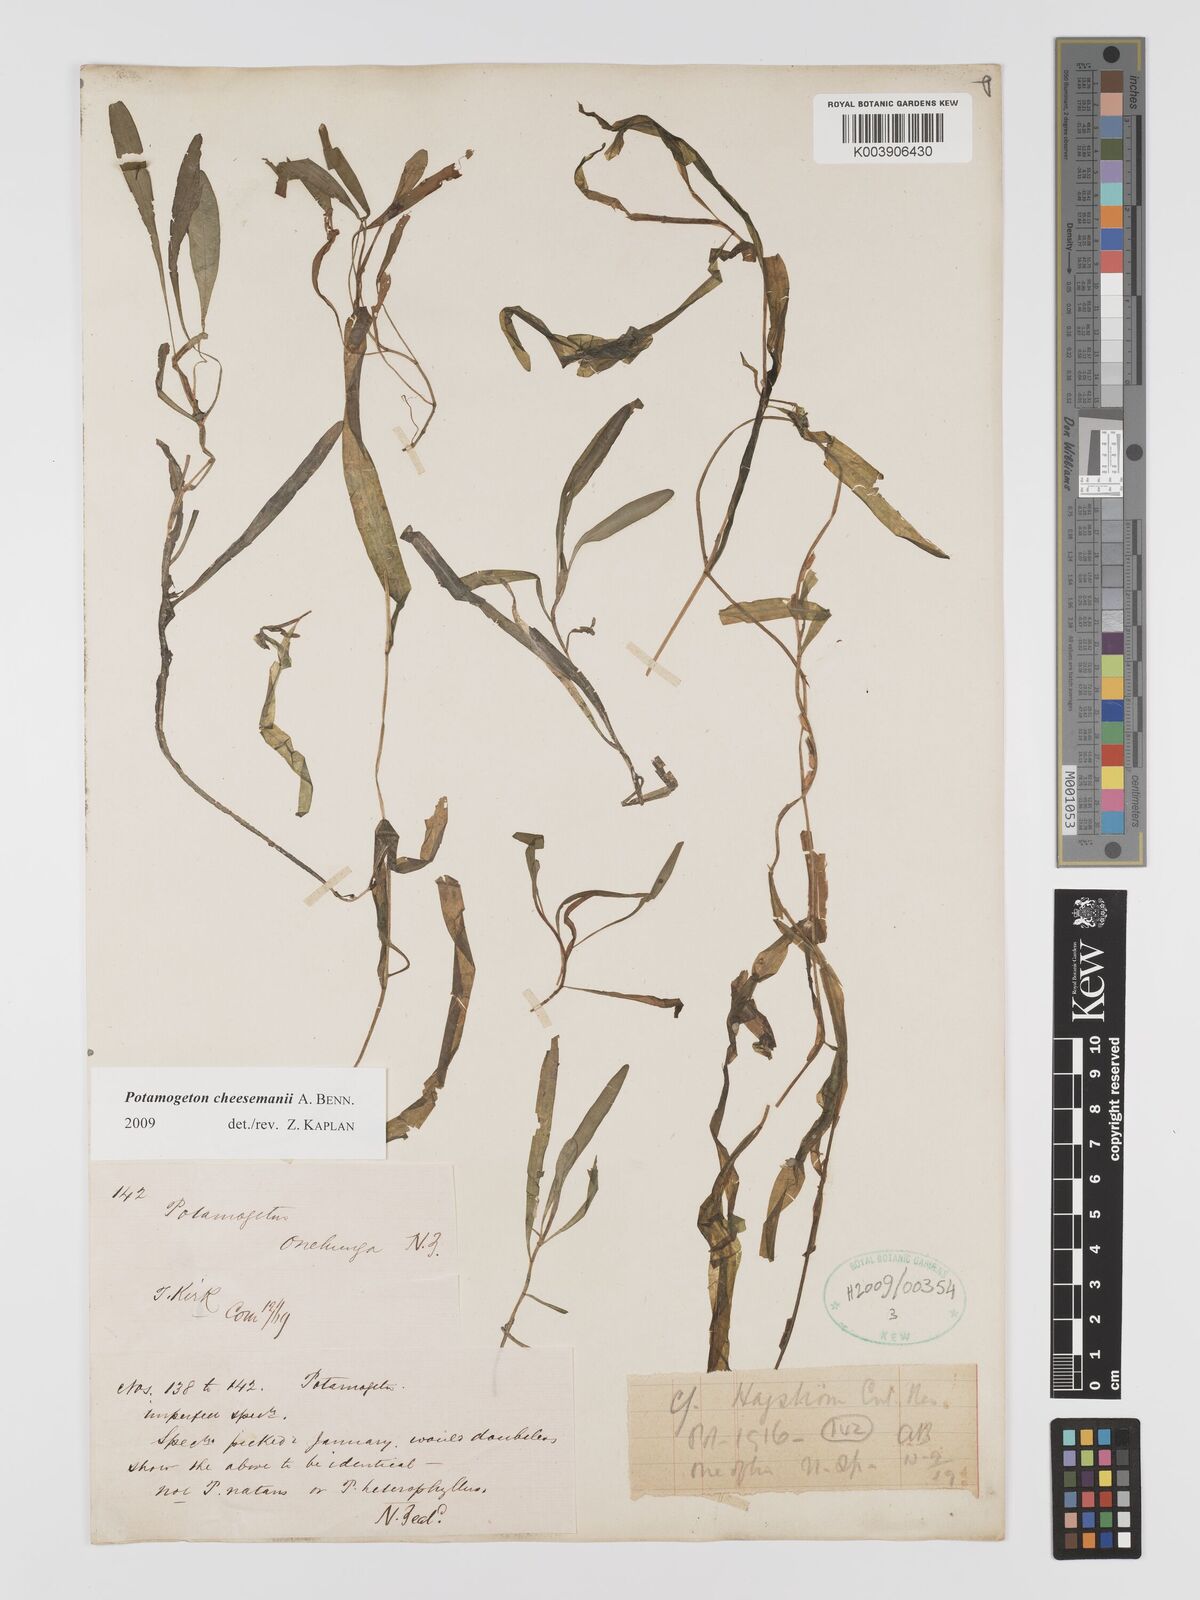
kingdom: Plantae
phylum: Tracheophyta
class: Liliopsida
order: Alismatales
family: Potamogetonaceae
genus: Potamogeton
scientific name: Potamogeton cheesemanii
